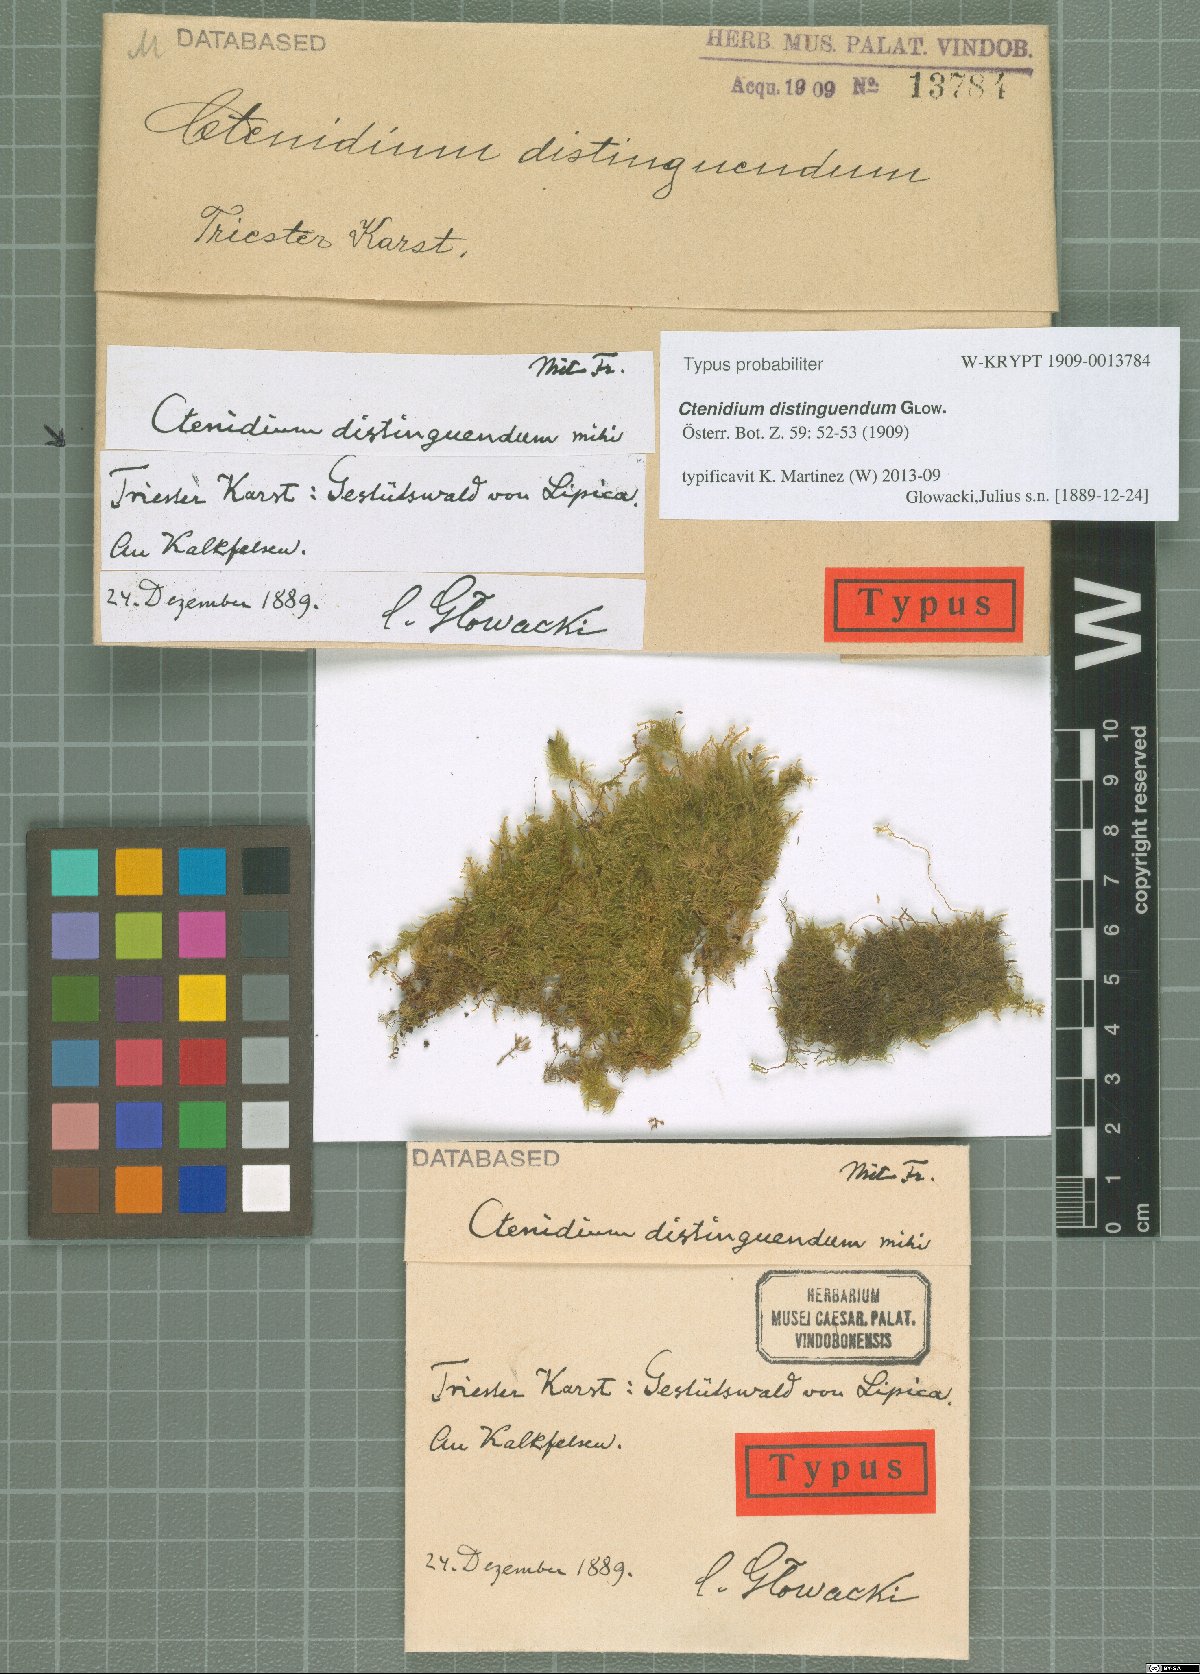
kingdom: Plantae
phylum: Bryophyta
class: Bryopsida
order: Hypnales
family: Myuriaceae
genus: Ctenidium
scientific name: Ctenidium molluscum
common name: Chalk comb-moss
